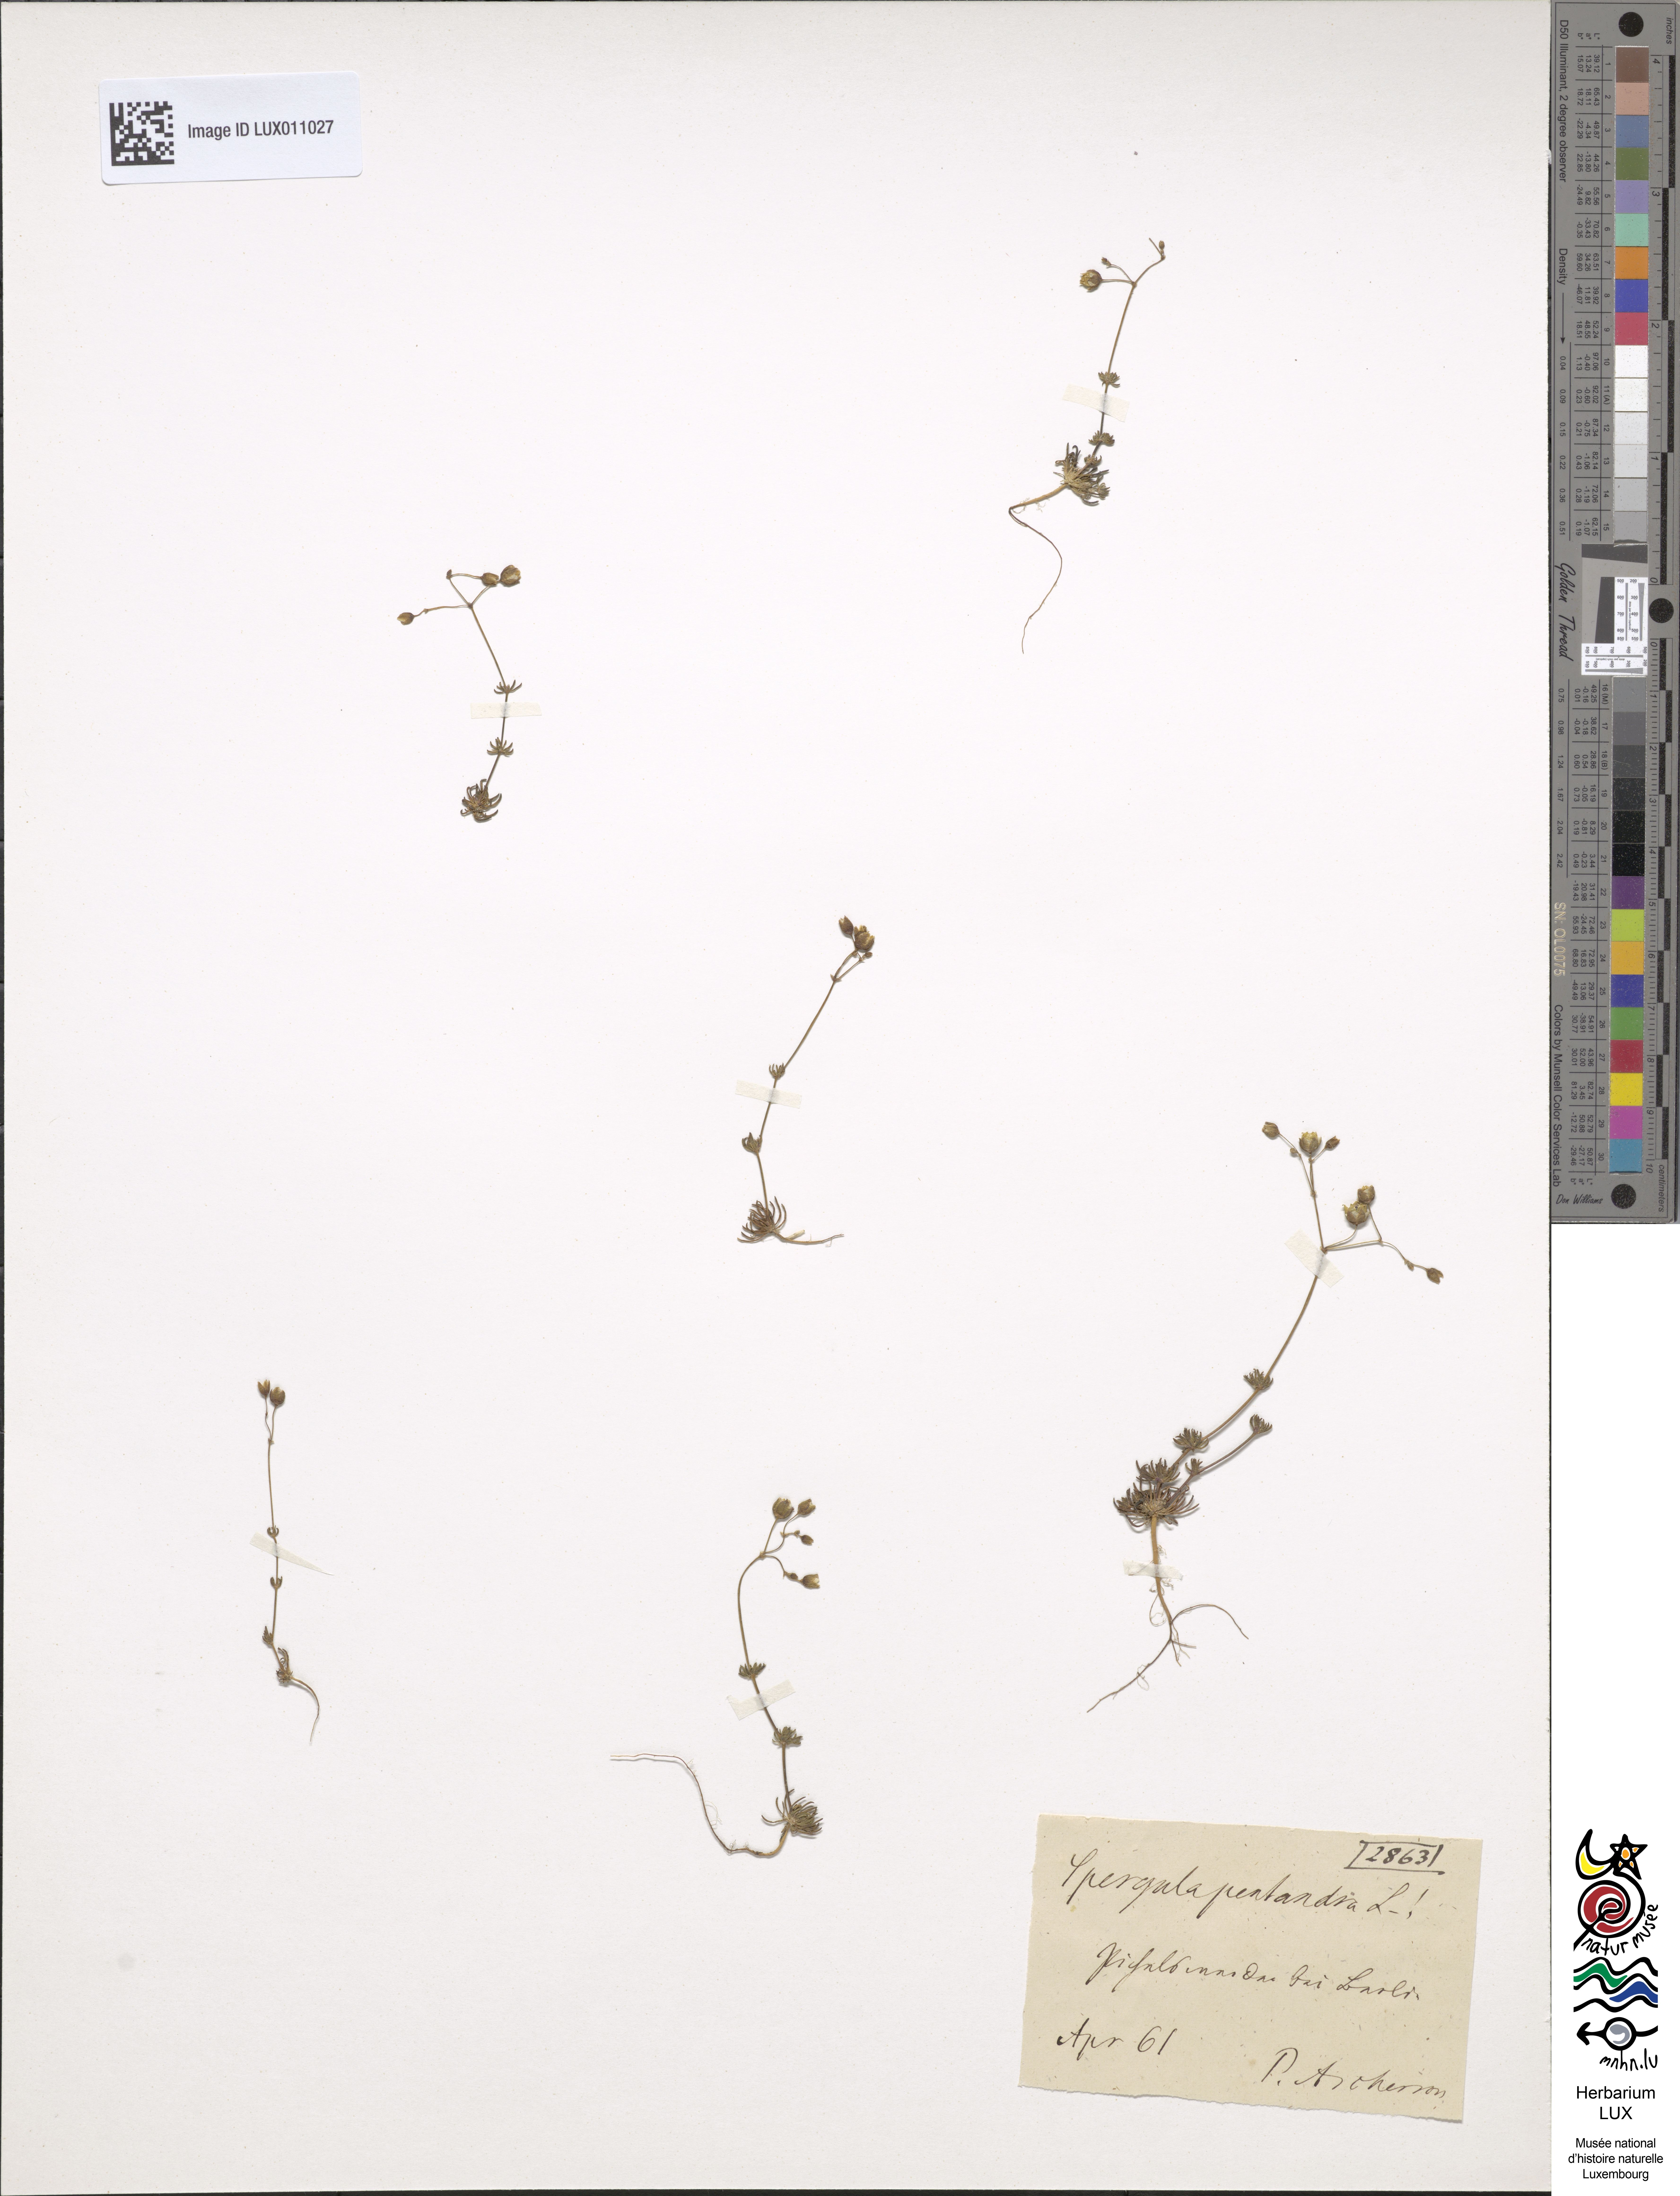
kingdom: Plantae
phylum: Tracheophyta
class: Magnoliopsida
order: Caryophyllales
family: Caryophyllaceae
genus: Spergula
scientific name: Spergula pentandra
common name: Wingstem spurry
